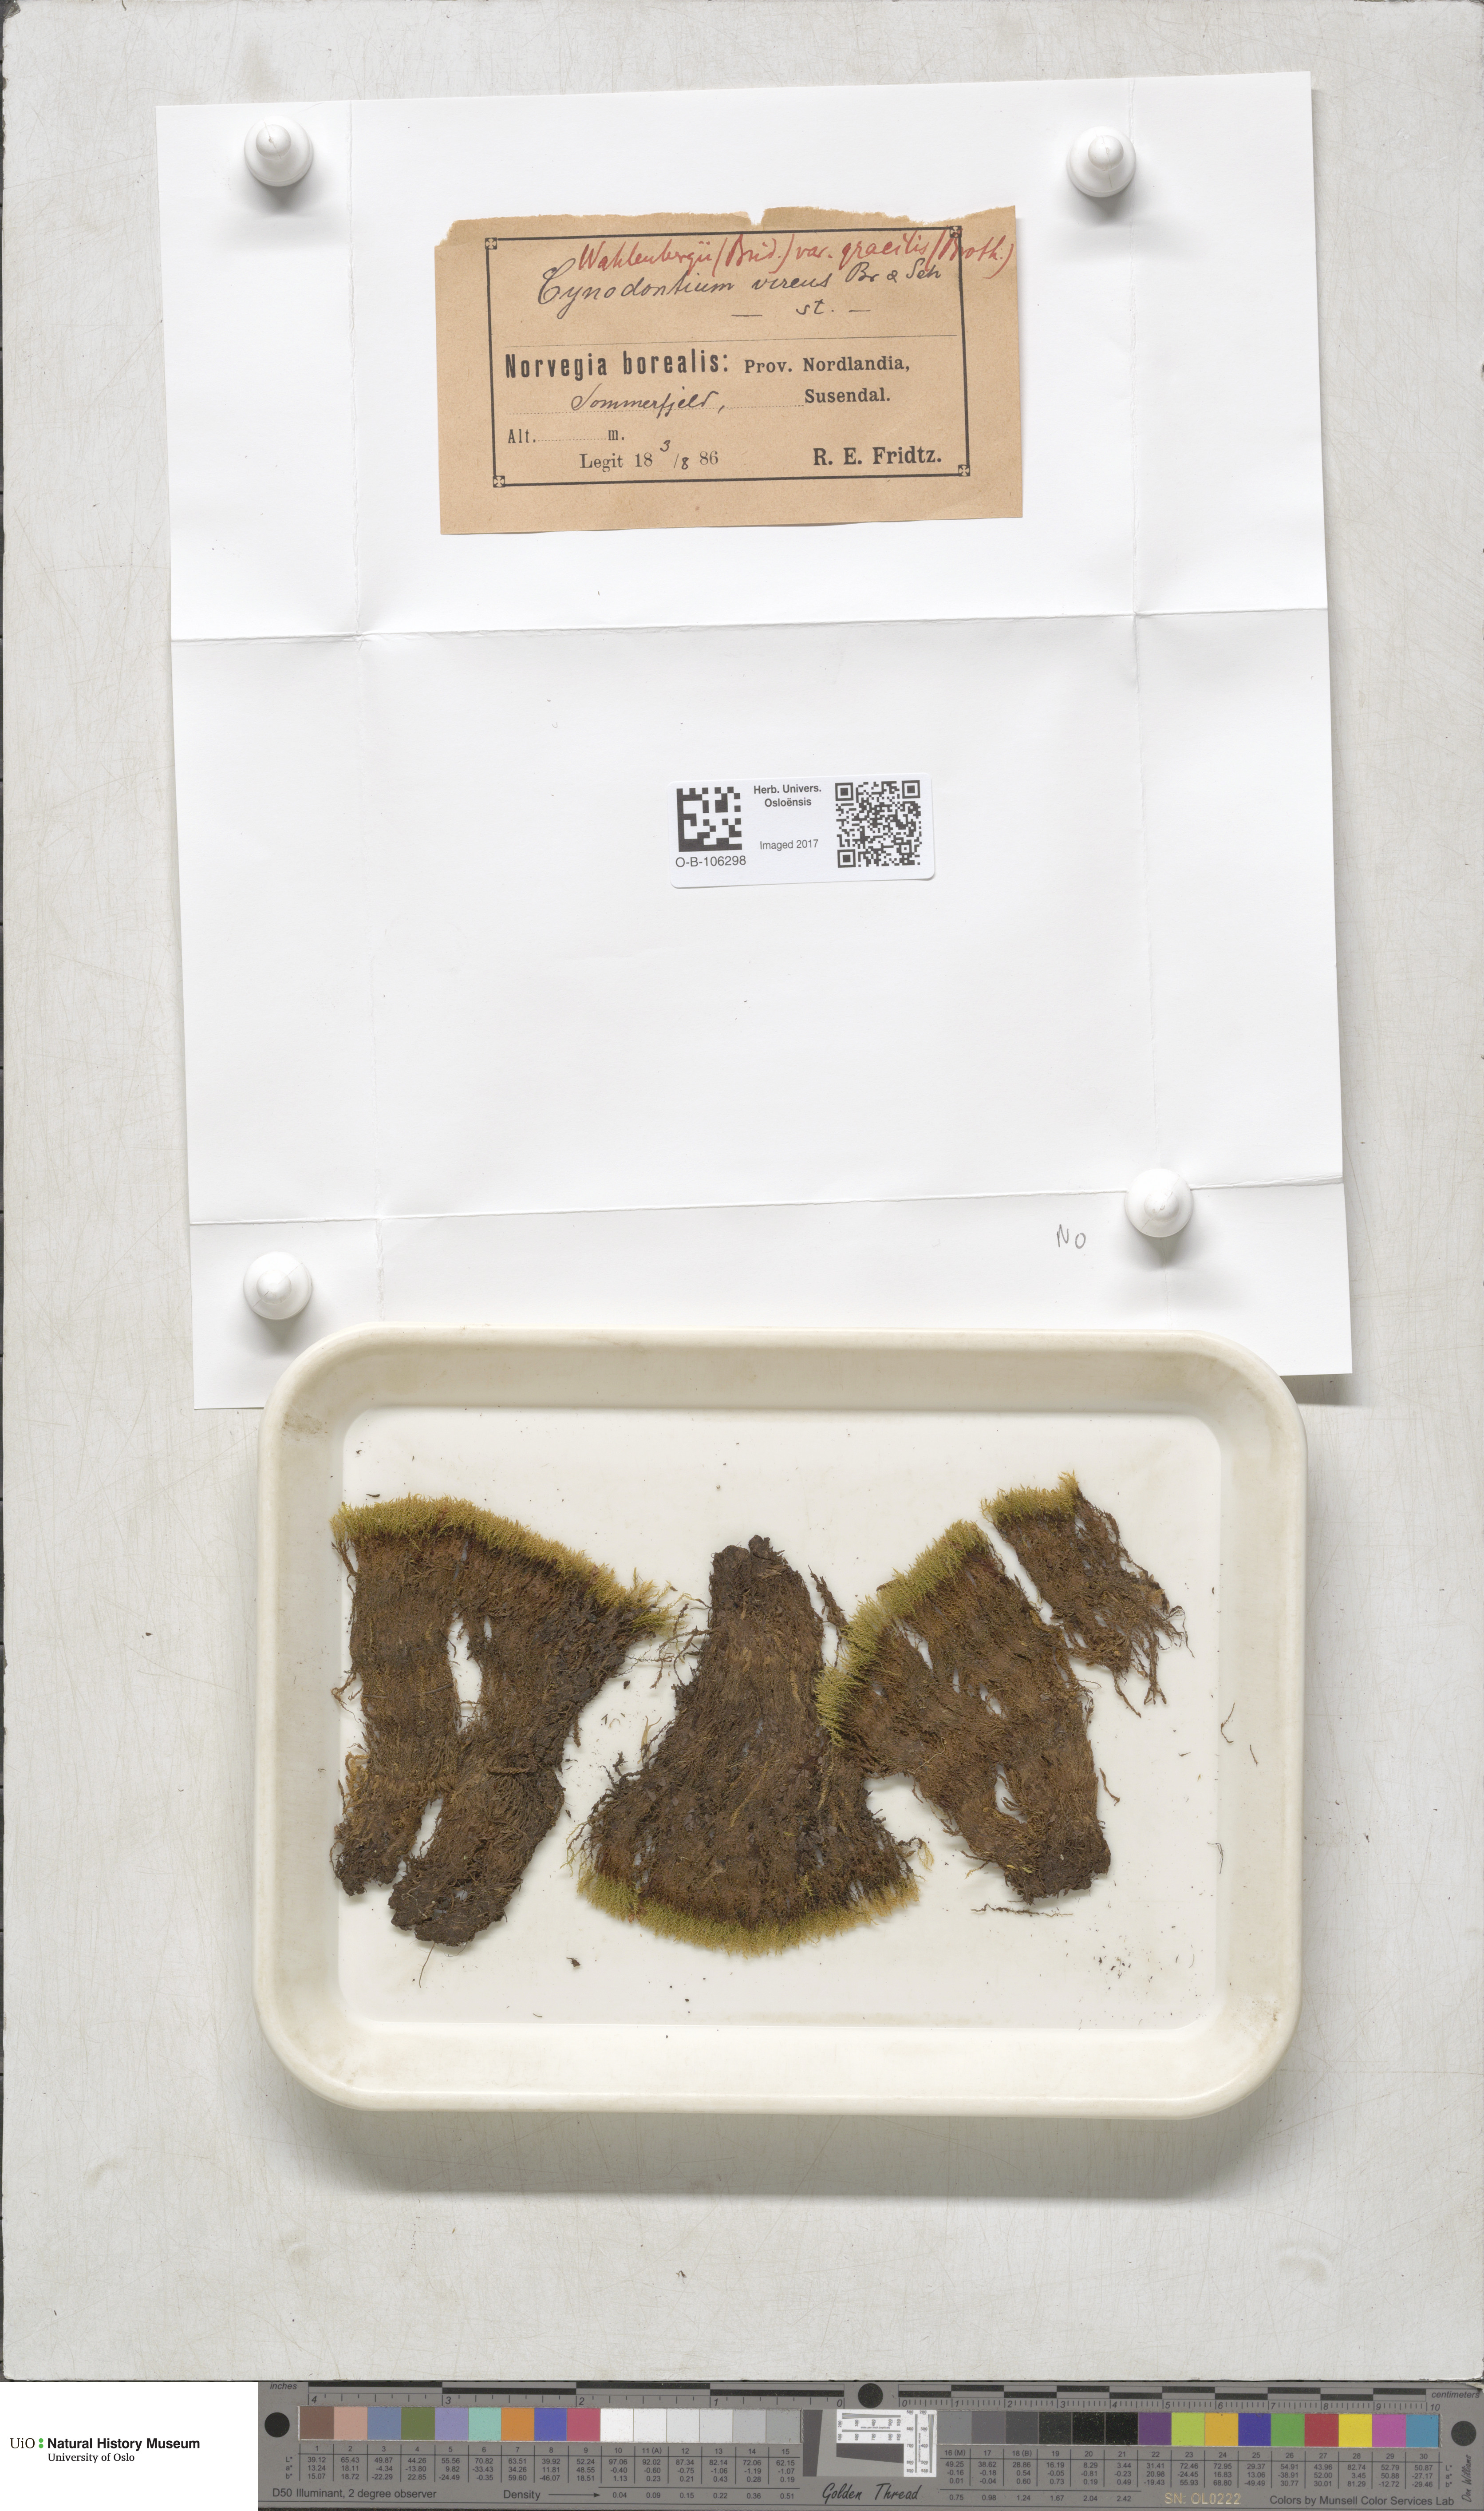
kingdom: Plantae
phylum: Bryophyta
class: Bryopsida
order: Dicranales
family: Rhabdoweisiaceae
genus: Brideliella
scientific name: Brideliella wahlenbergii
